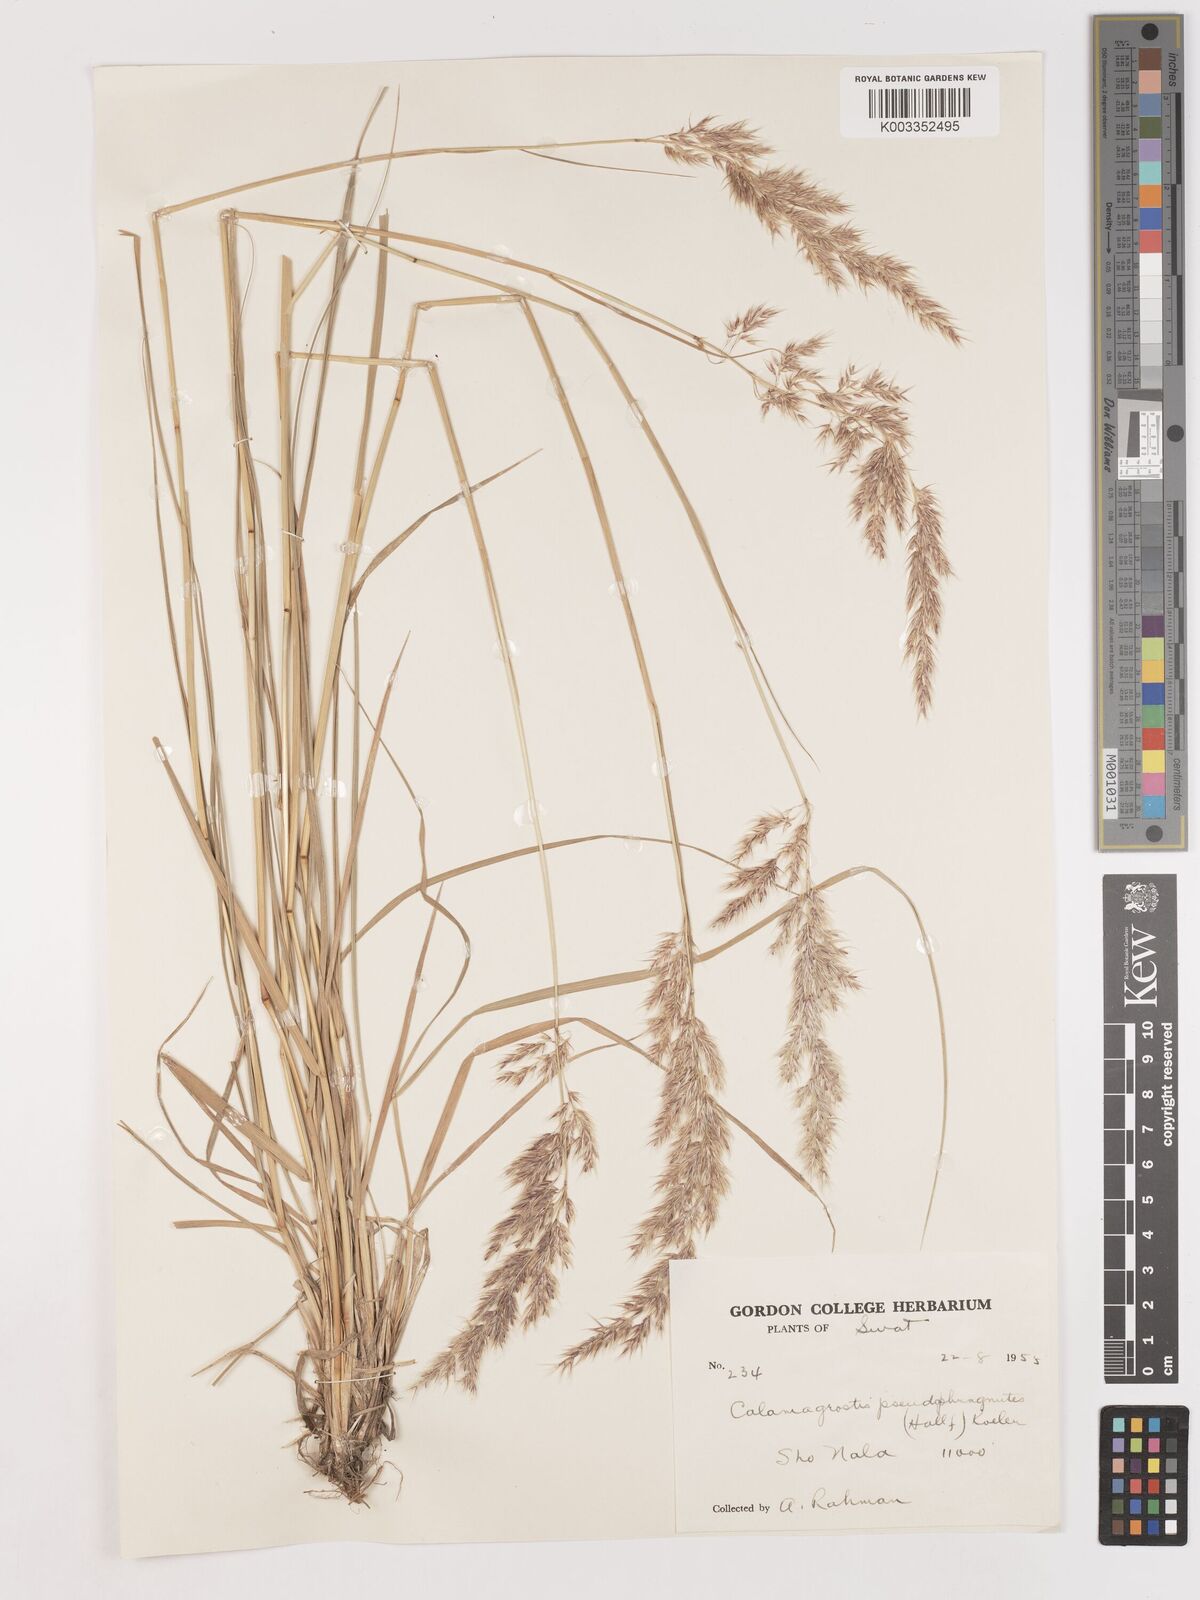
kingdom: Plantae
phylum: Tracheophyta
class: Liliopsida
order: Poales
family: Poaceae
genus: Calamagrostis
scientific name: Calamagrostis epigejos
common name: Wood small-reed
